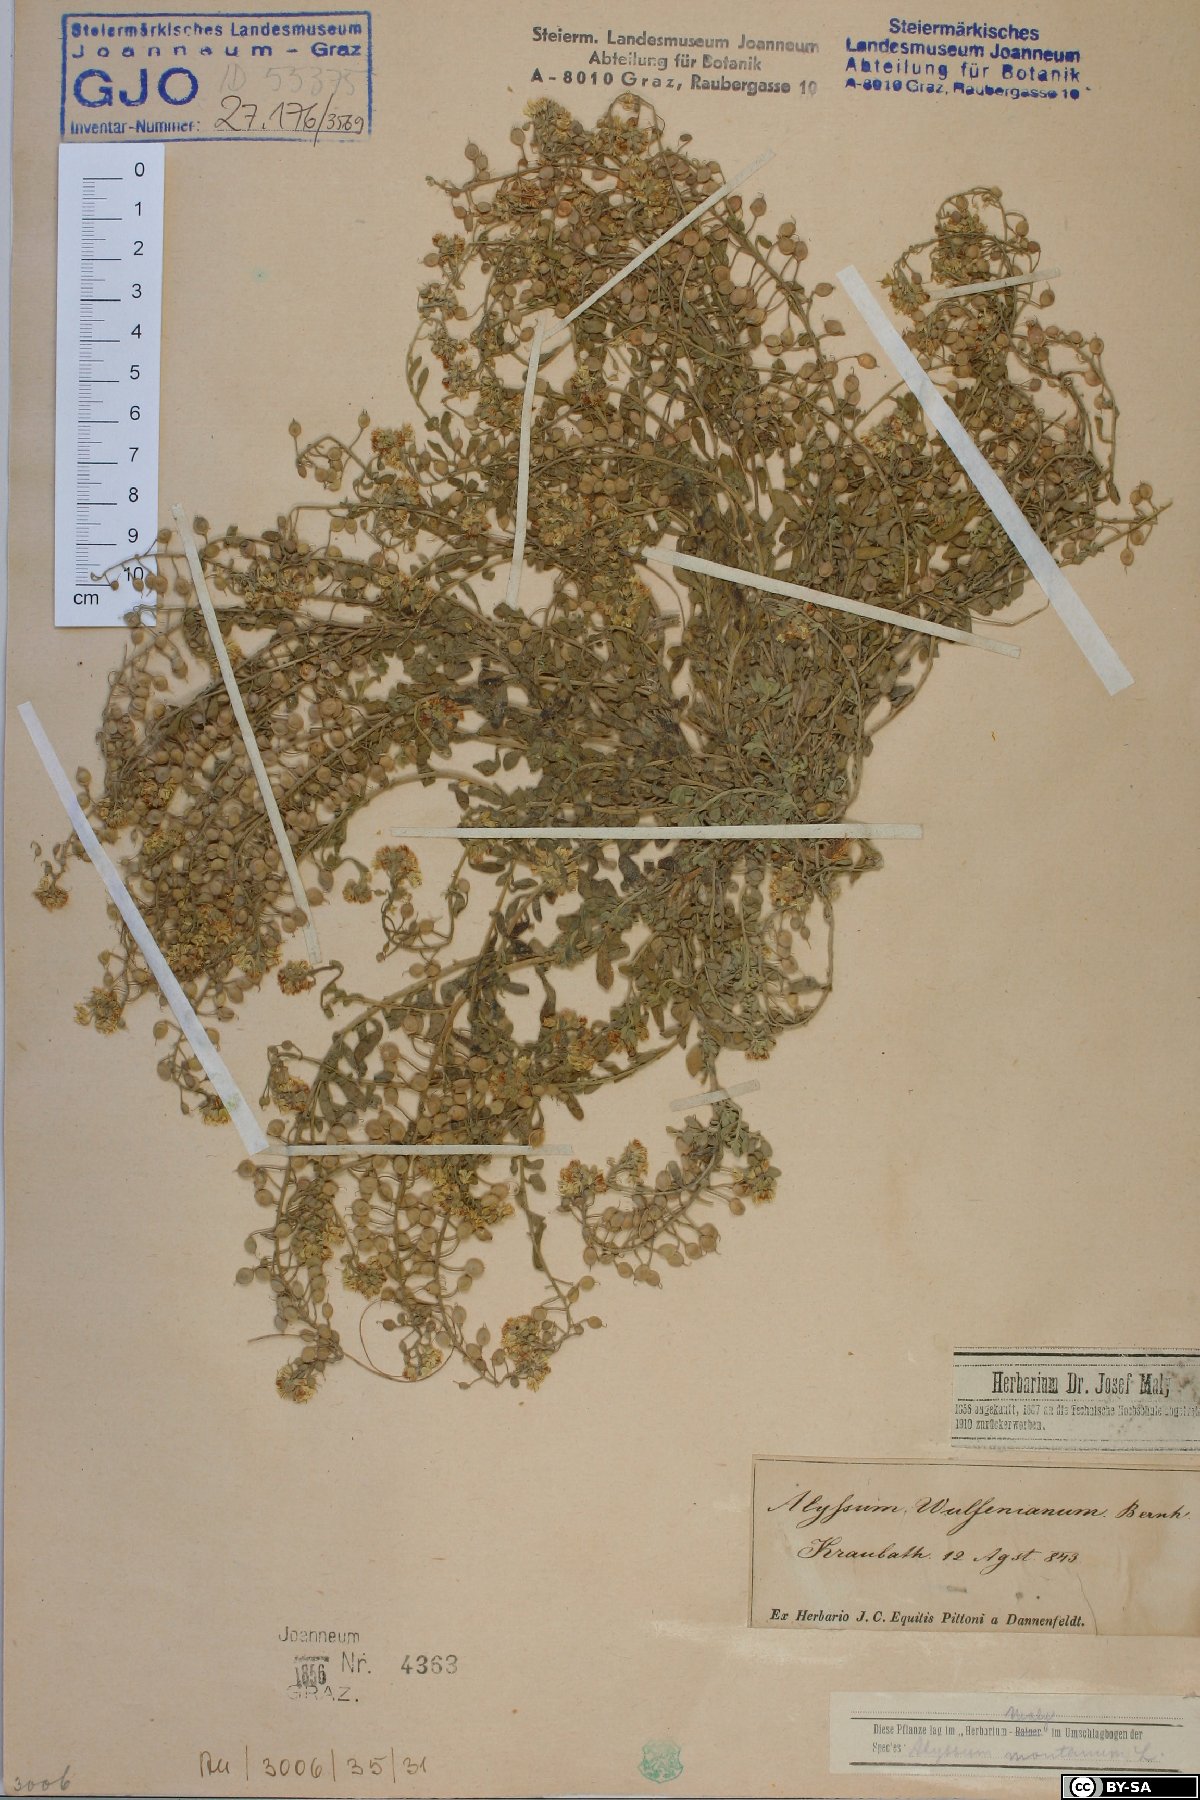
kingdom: Plantae
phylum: Tracheophyta
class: Magnoliopsida
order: Brassicales
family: Brassicaceae
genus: Alyssum
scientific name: Alyssum wulfenianum
